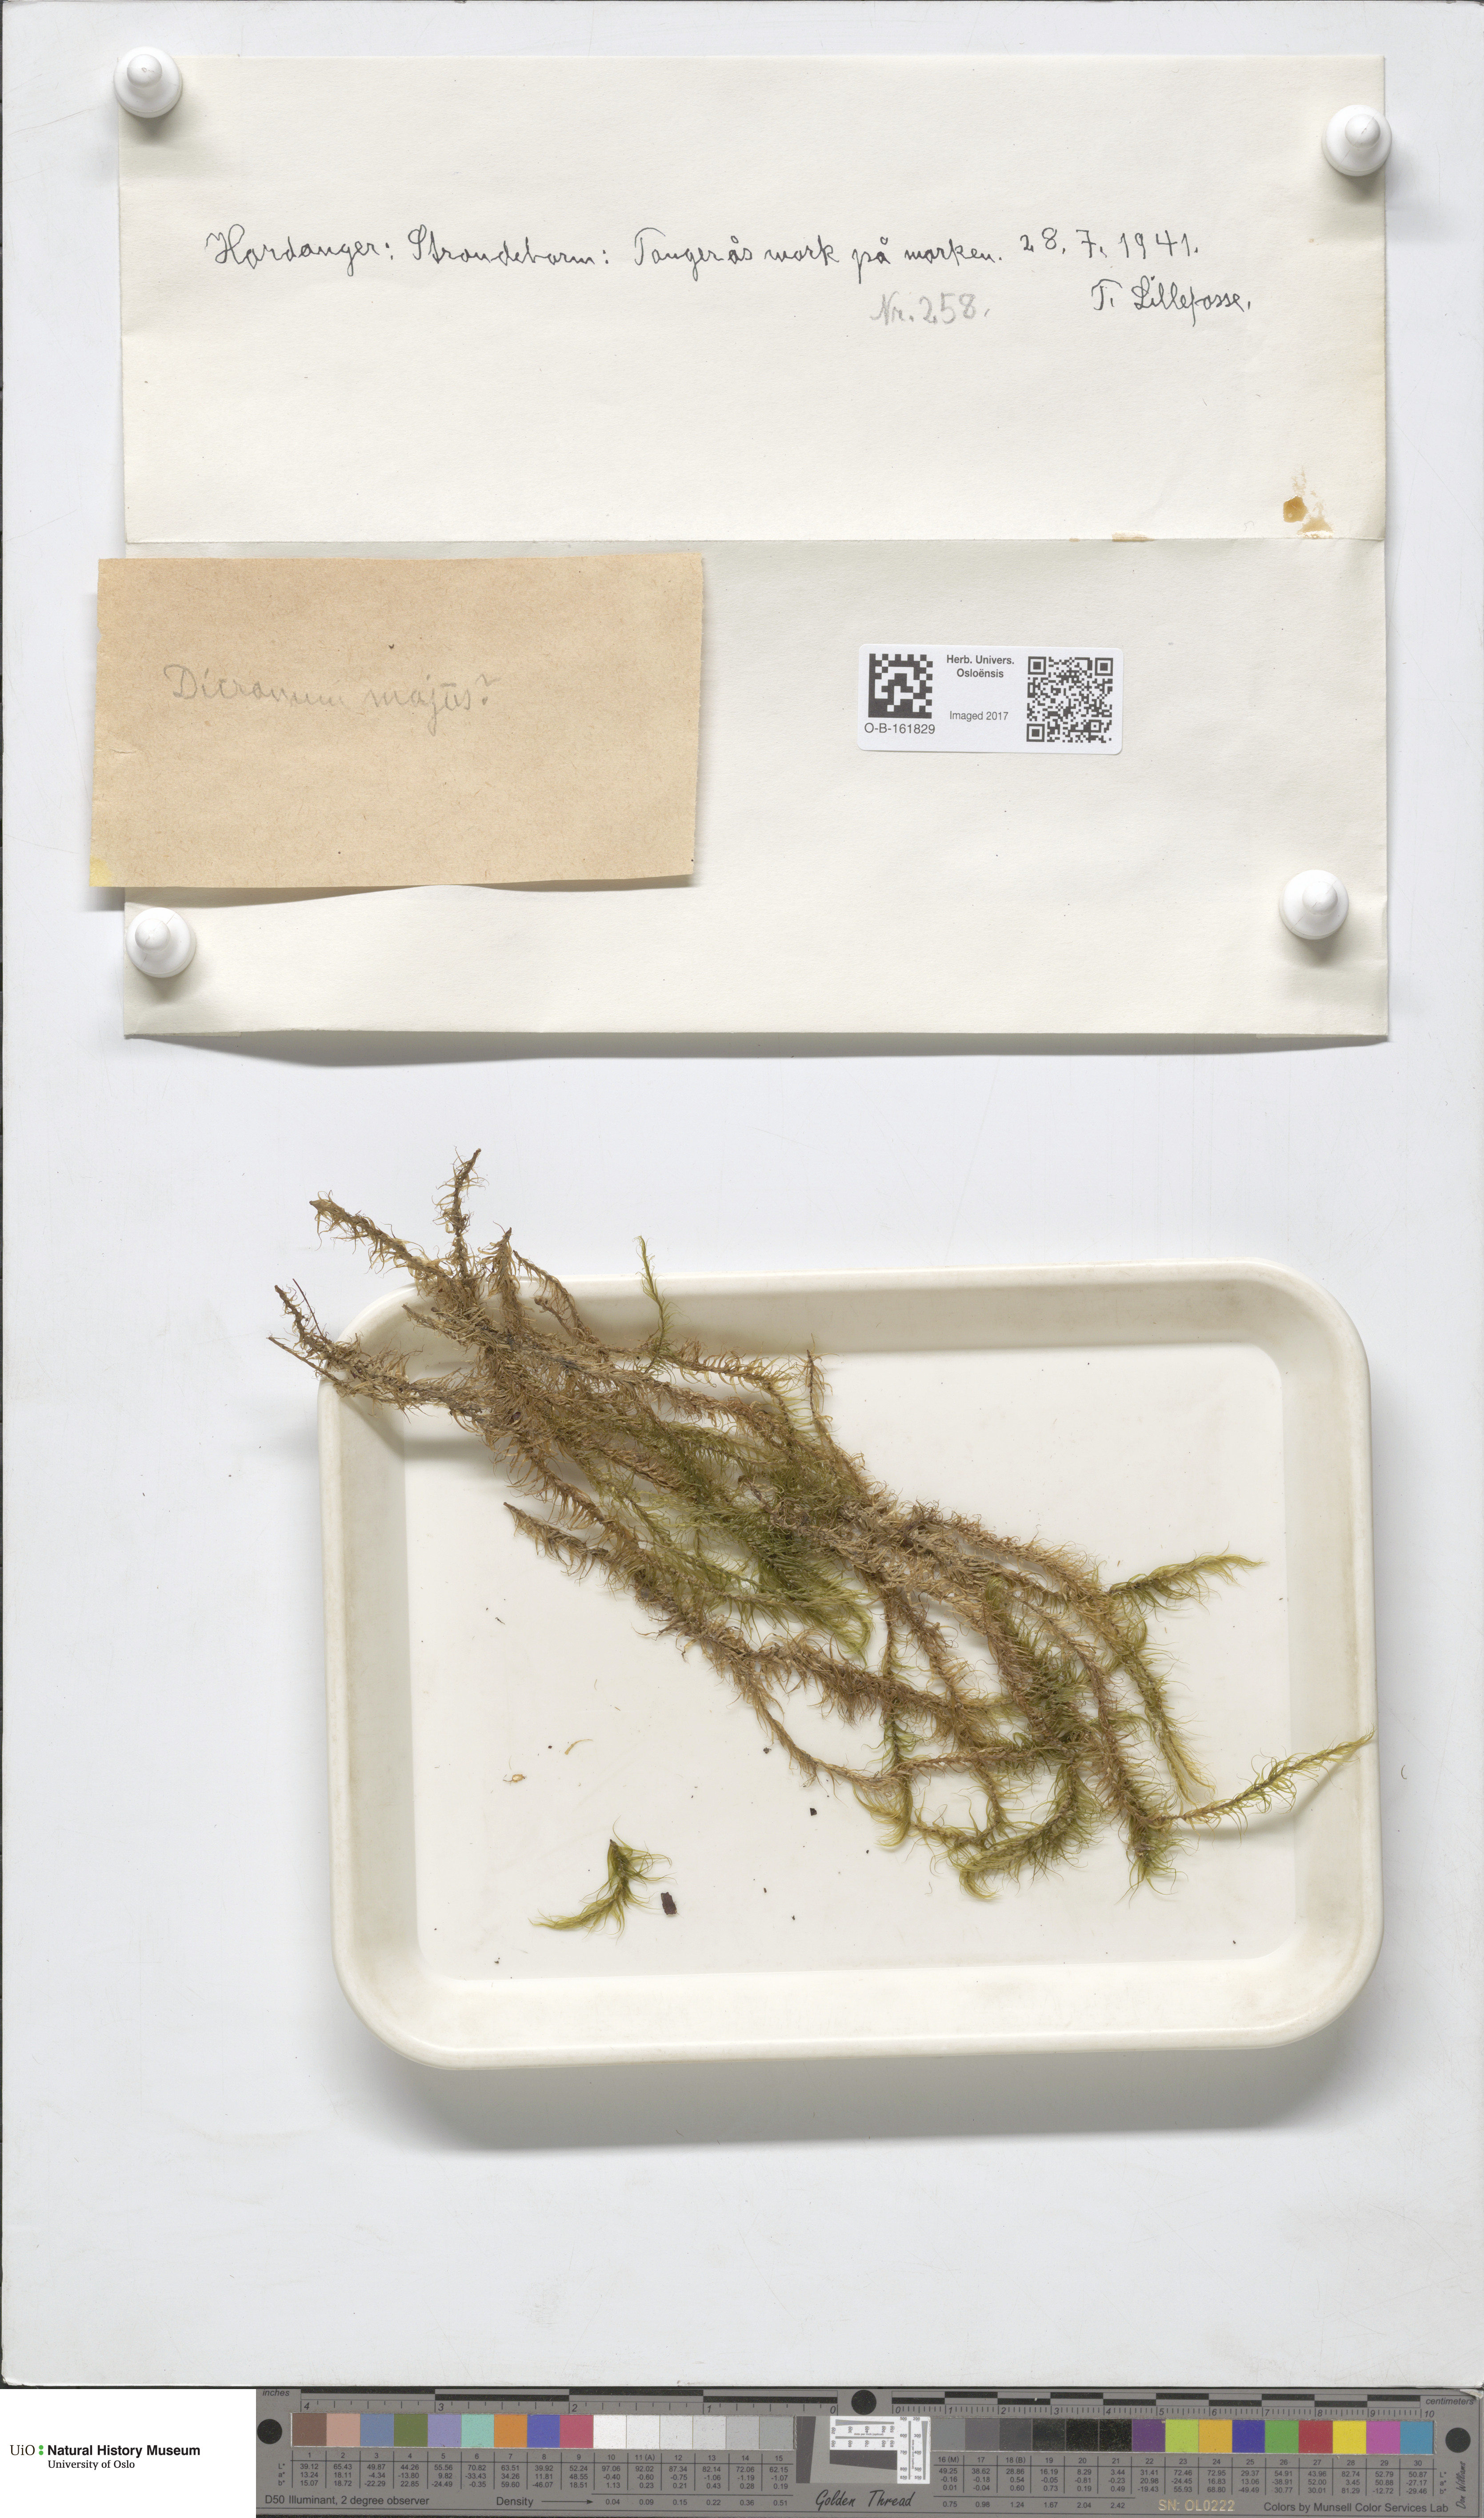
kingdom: Plantae
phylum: Bryophyta
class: Bryopsida
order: Dicranales
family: Dicranaceae
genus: Dicranum
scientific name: Dicranum majus
